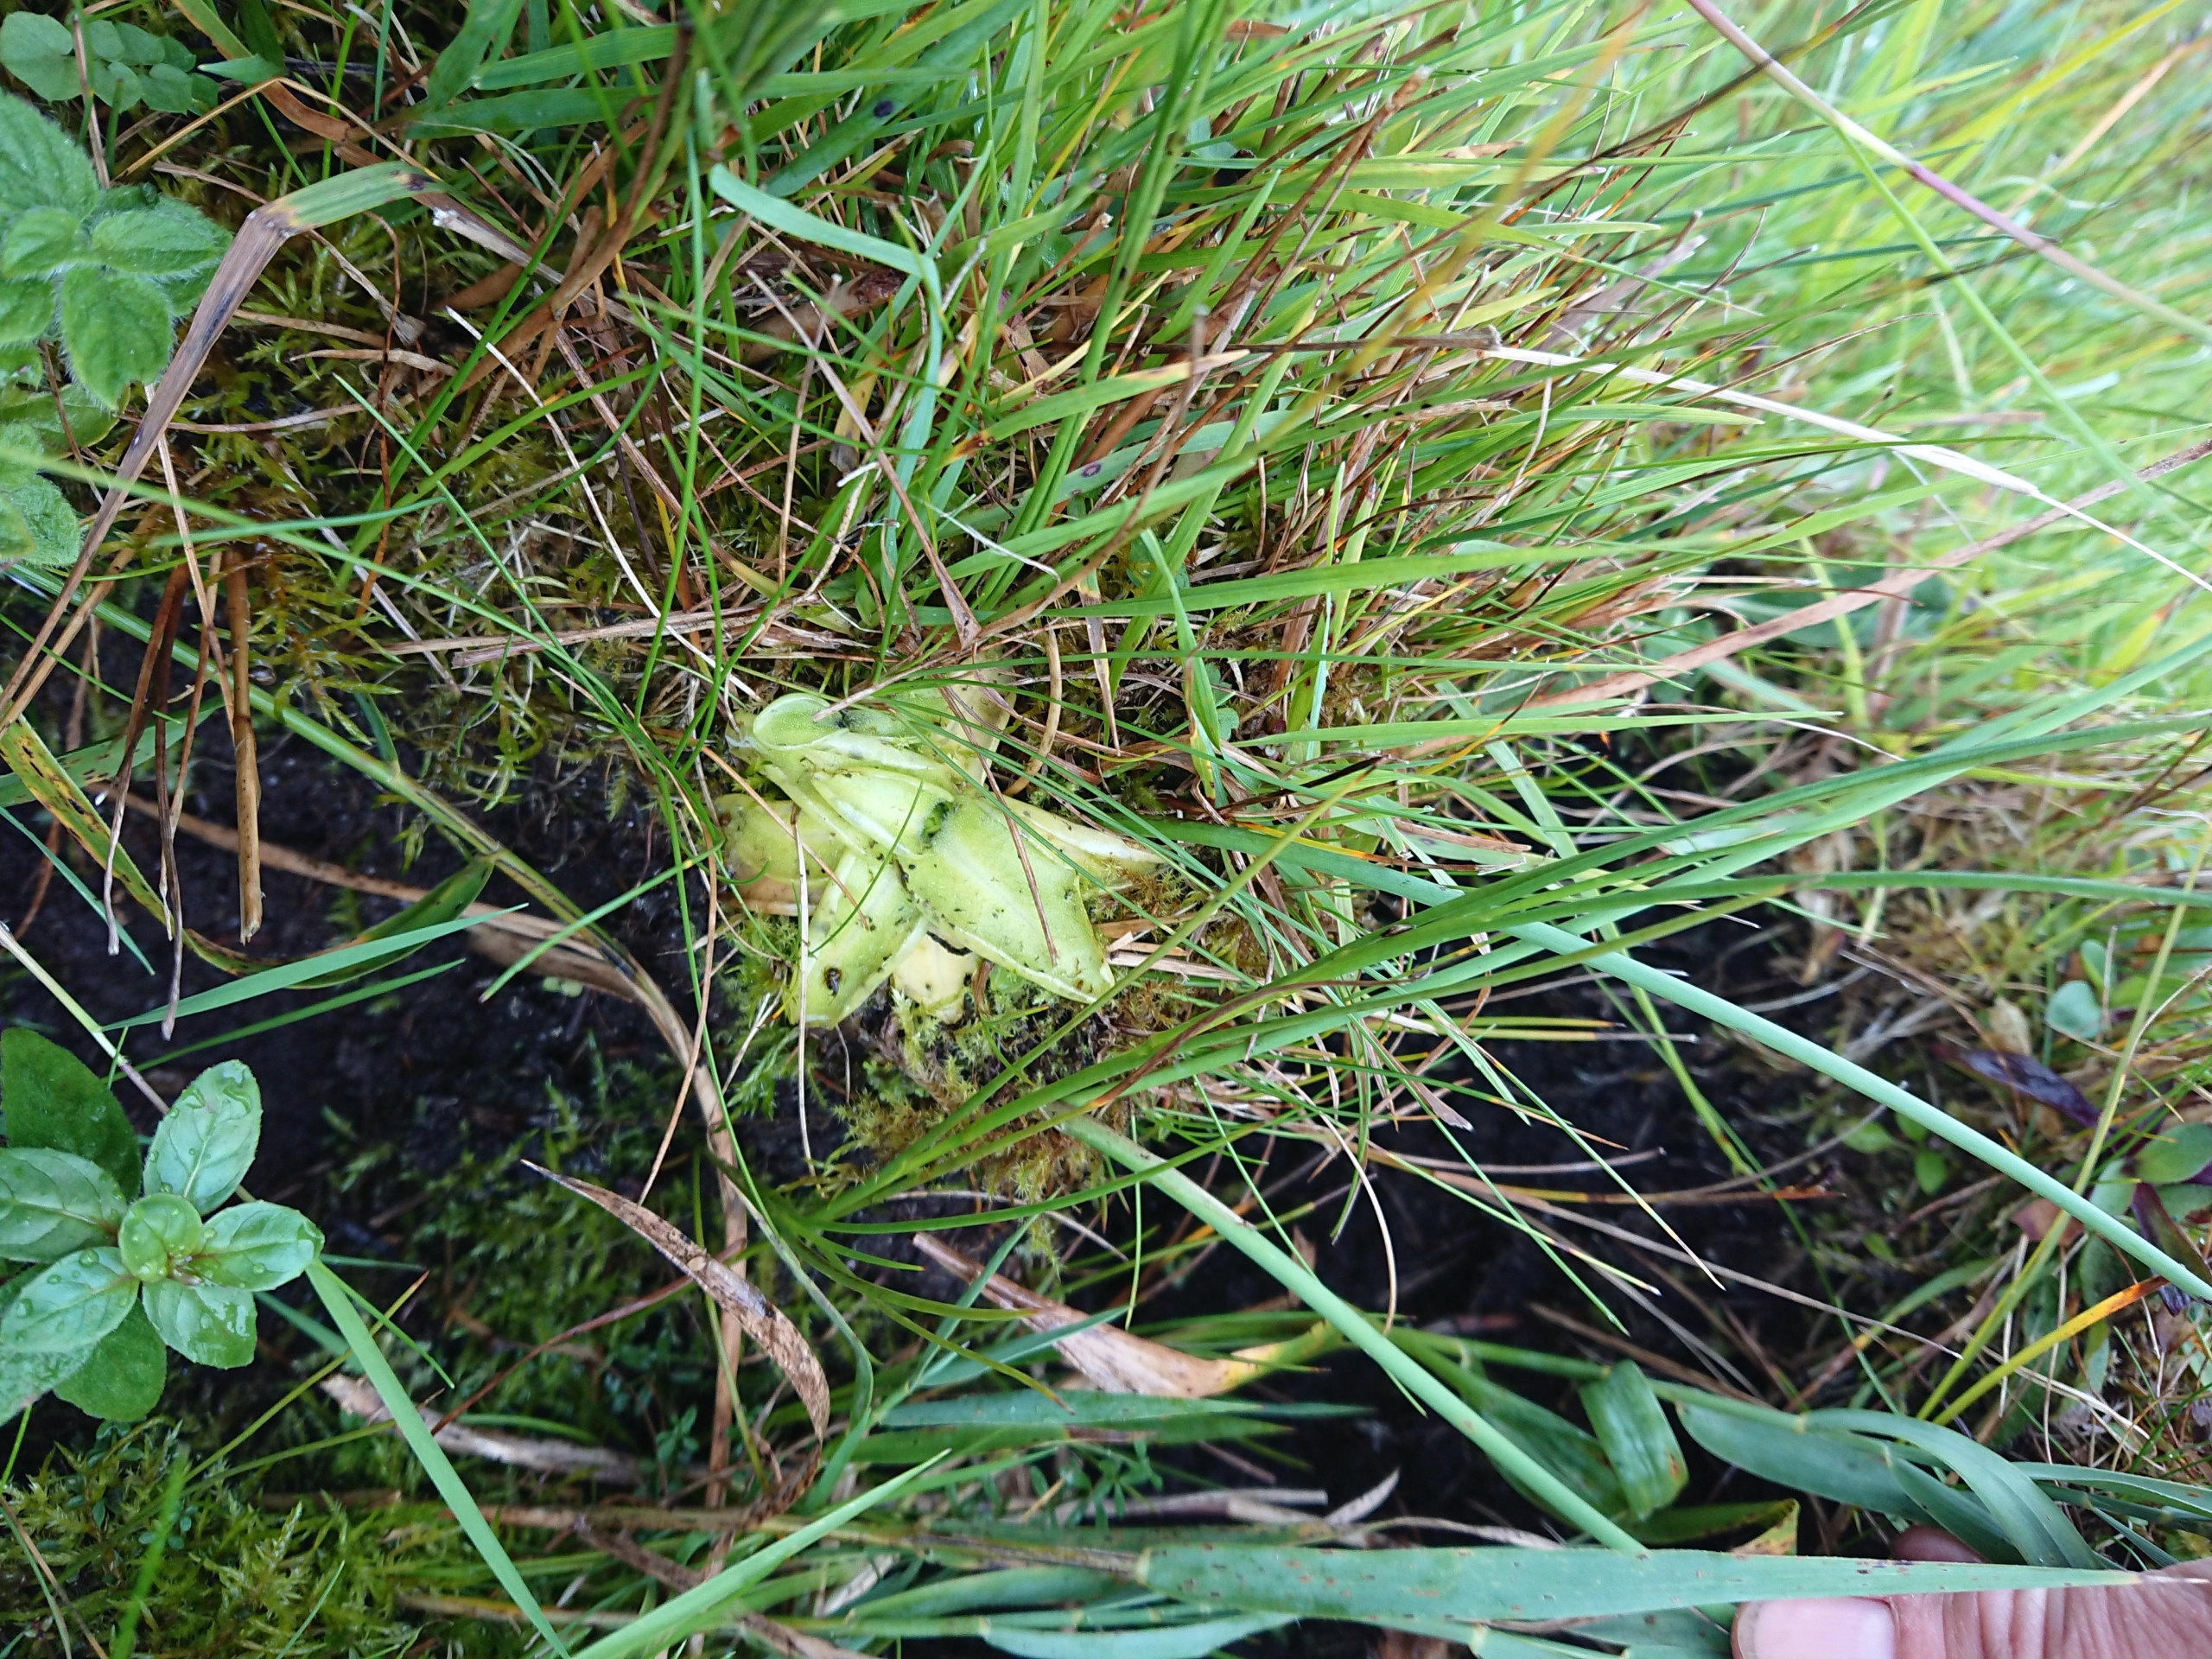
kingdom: Plantae
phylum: Tracheophyta
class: Magnoliopsida
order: Lamiales
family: Lentibulariaceae
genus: Pinguicula
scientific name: Pinguicula vulgaris
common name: Vibefedt
